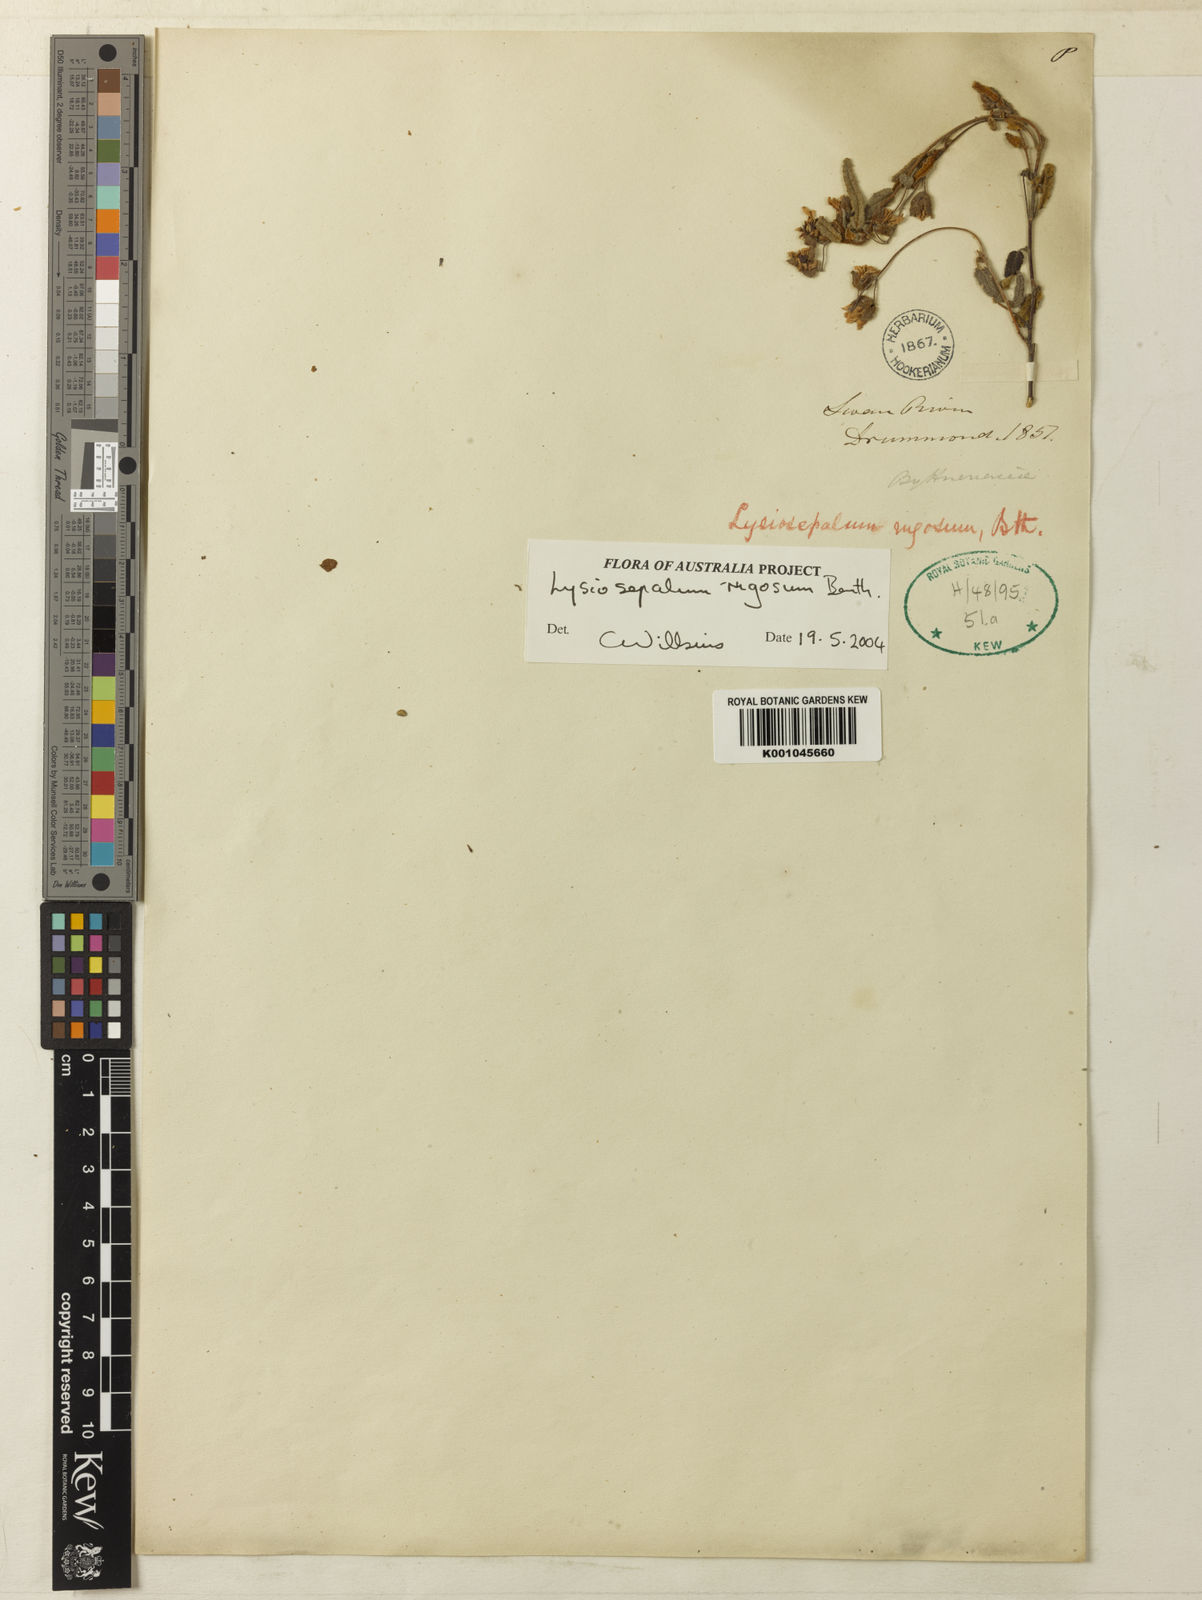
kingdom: Plantae
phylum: Tracheophyta
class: Magnoliopsida
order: Malvales
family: Malvaceae
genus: Lysiosepalum
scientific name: Lysiosepalum rugosum
